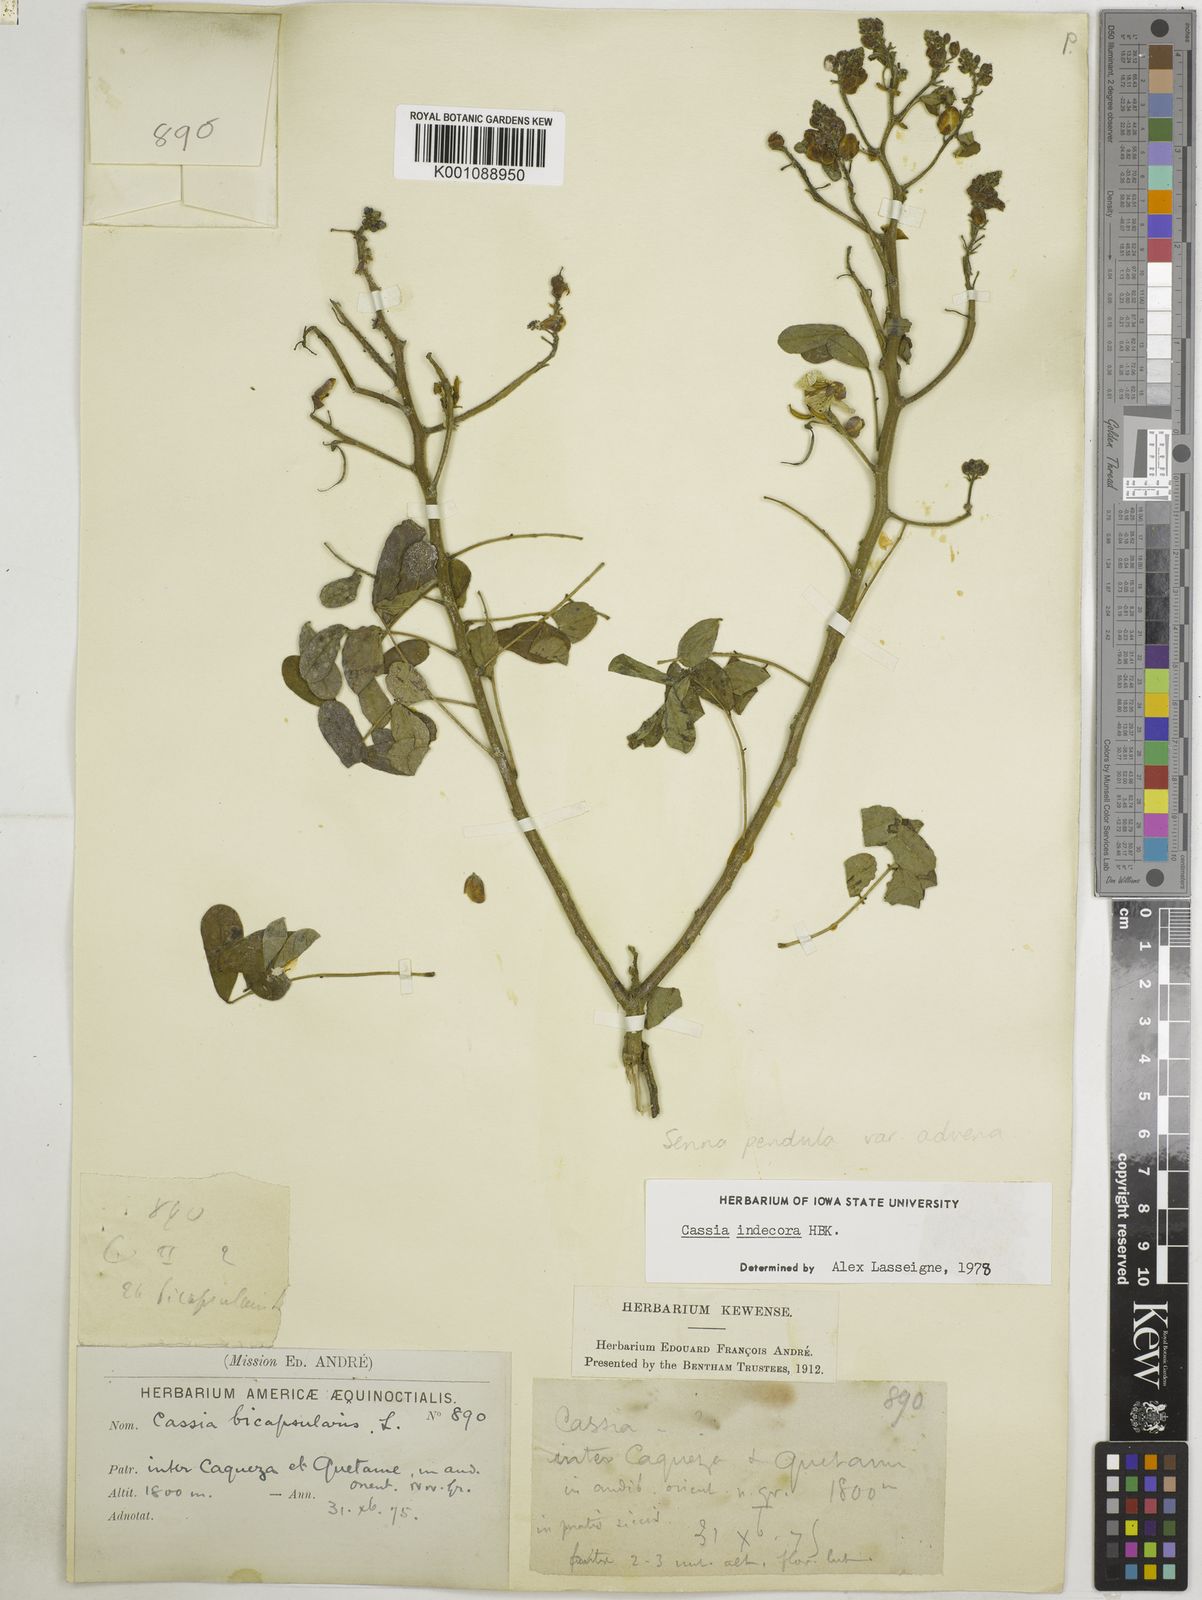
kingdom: Plantae
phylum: Tracheophyta
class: Magnoliopsida
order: Fabales
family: Fabaceae
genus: Senna
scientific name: Senna pendula
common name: Easter cassia
